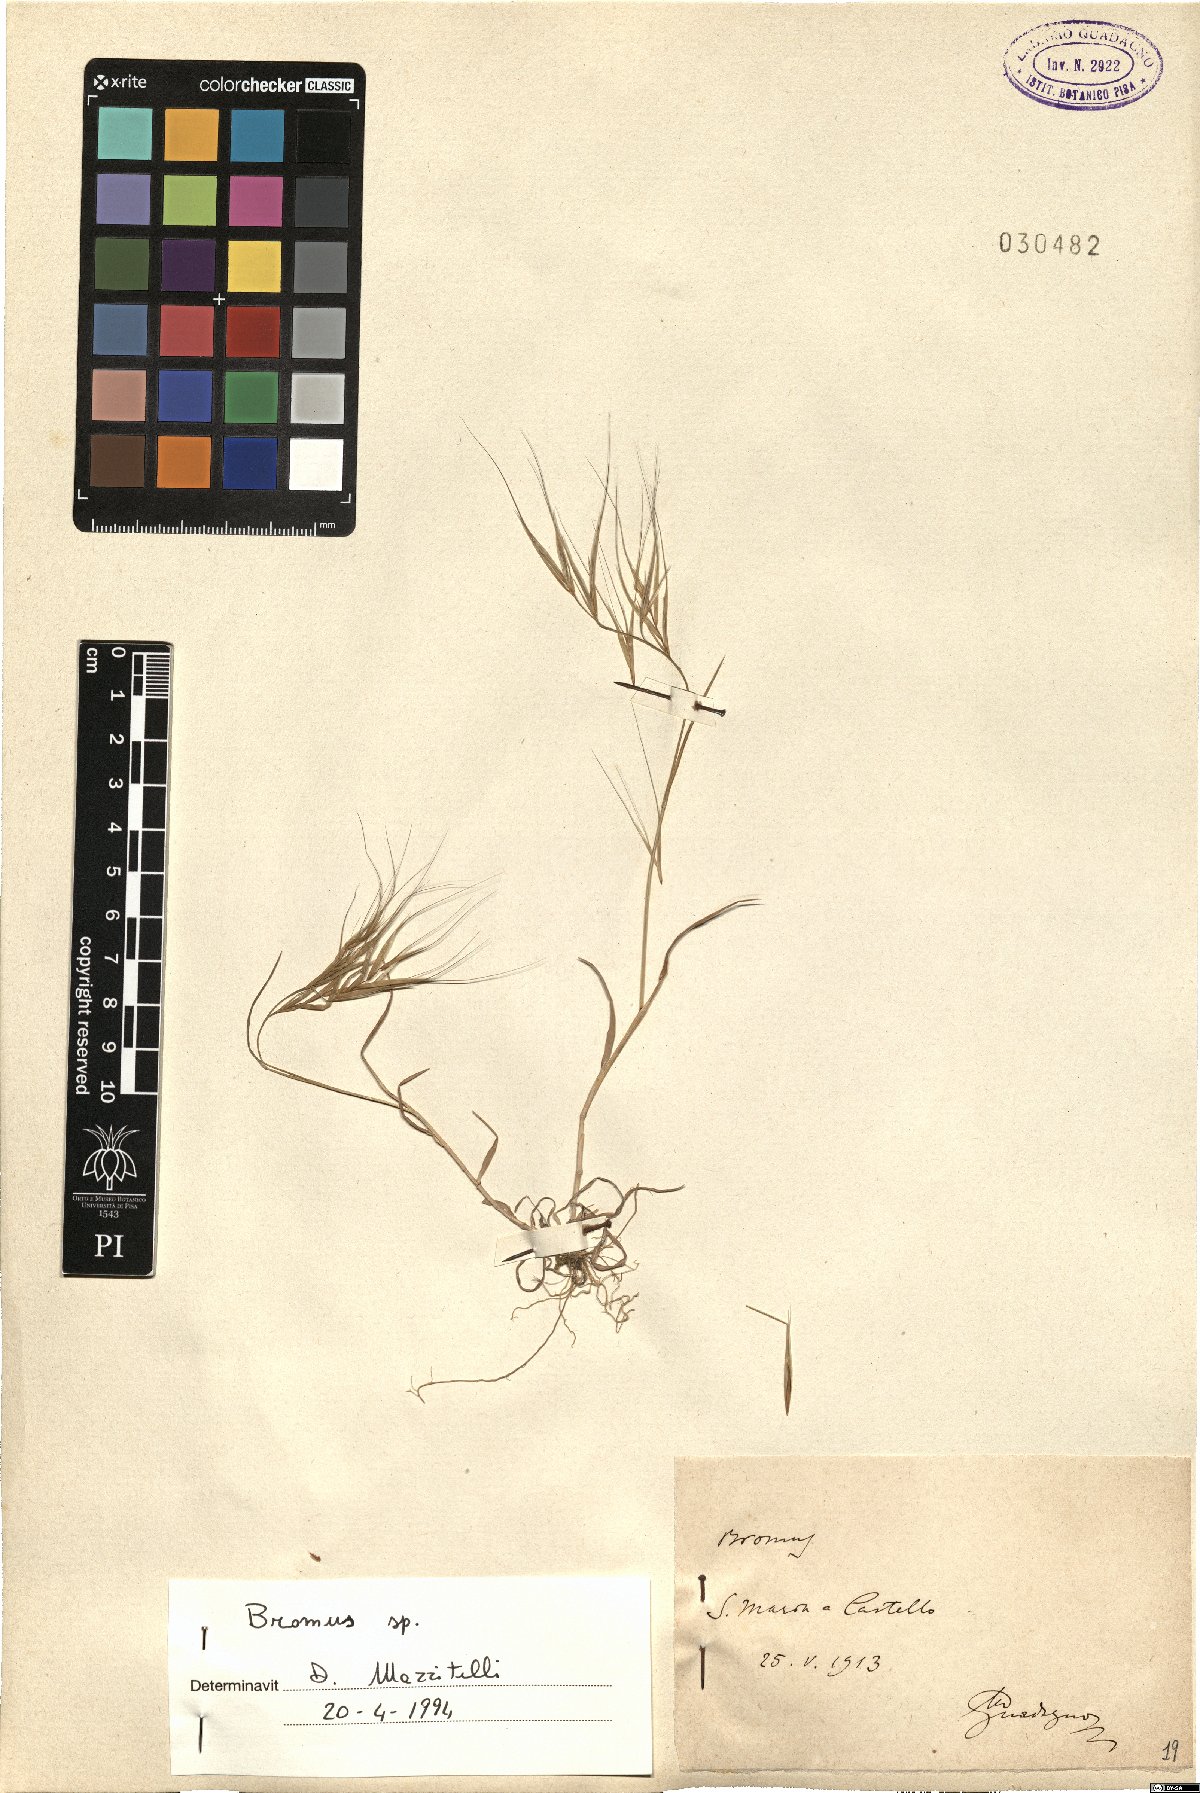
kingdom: Plantae
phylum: Tracheophyta
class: Liliopsida
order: Poales
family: Poaceae
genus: Bromus
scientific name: Bromus
